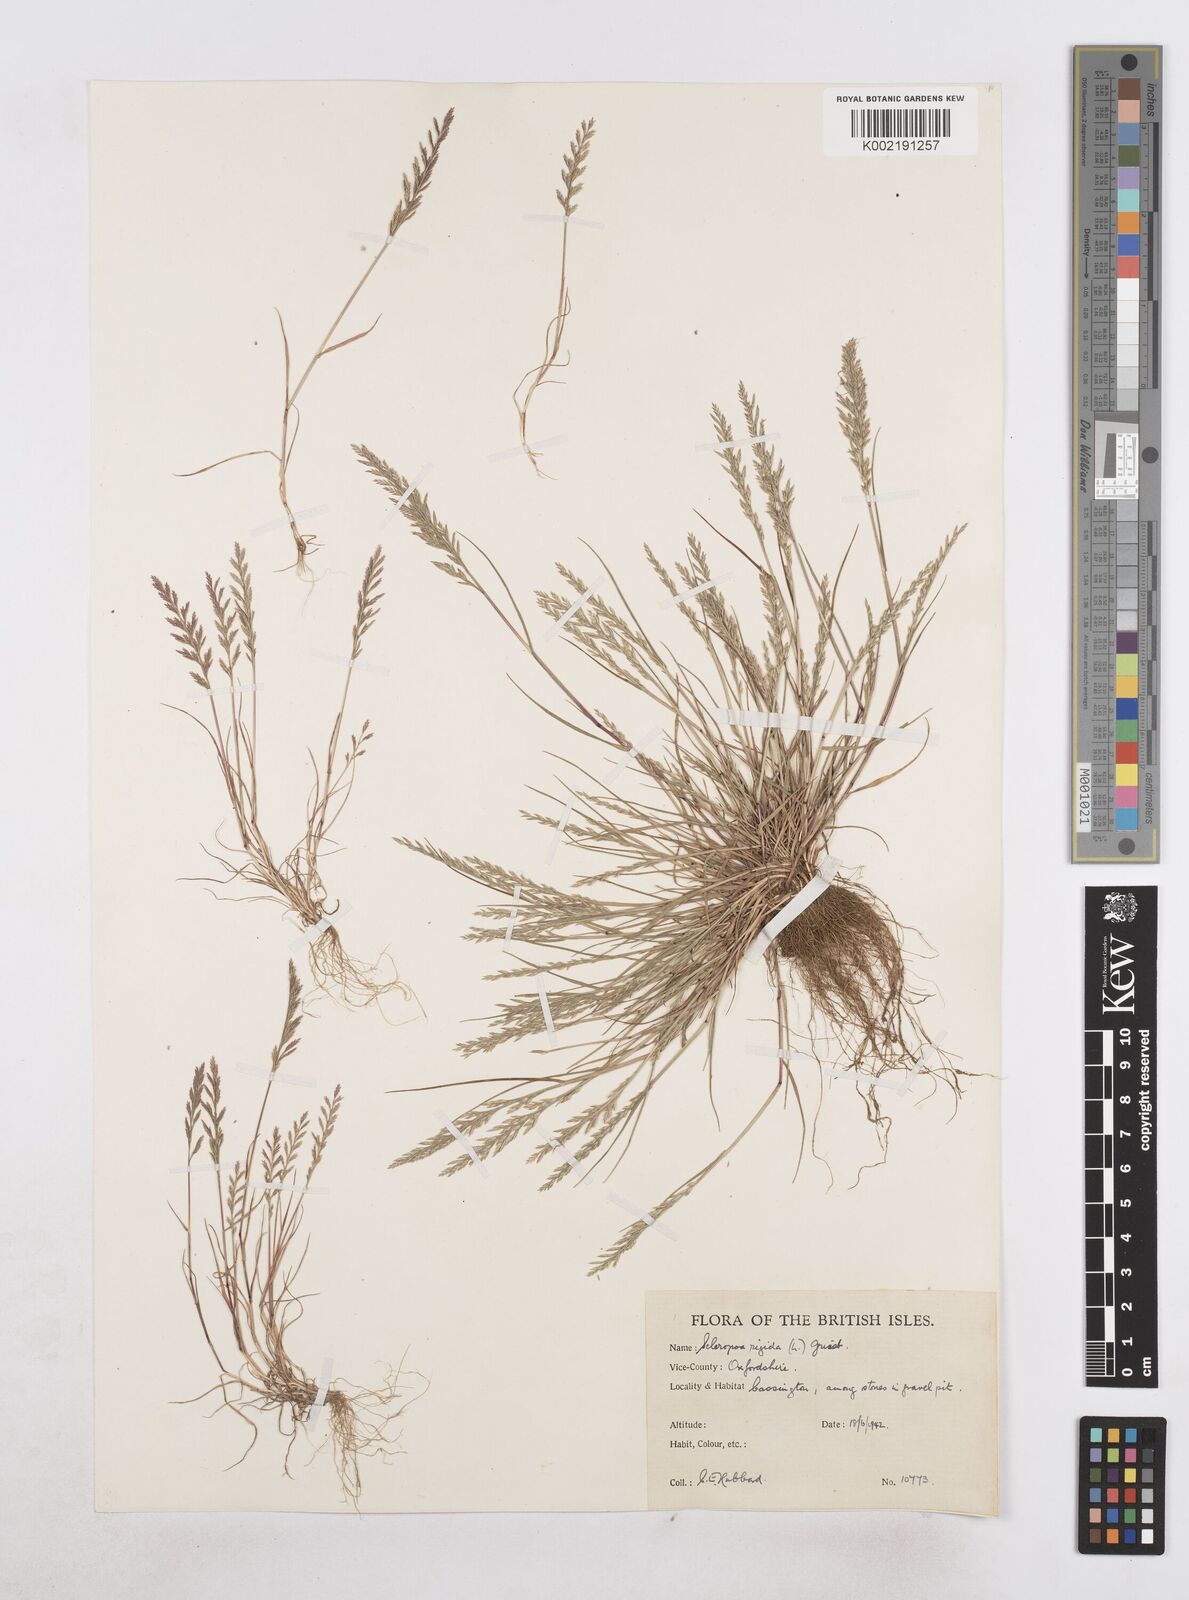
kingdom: Plantae
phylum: Tracheophyta
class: Liliopsida
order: Poales
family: Poaceae
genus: Catapodium
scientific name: Catapodium rigidum
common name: Fern-grass
